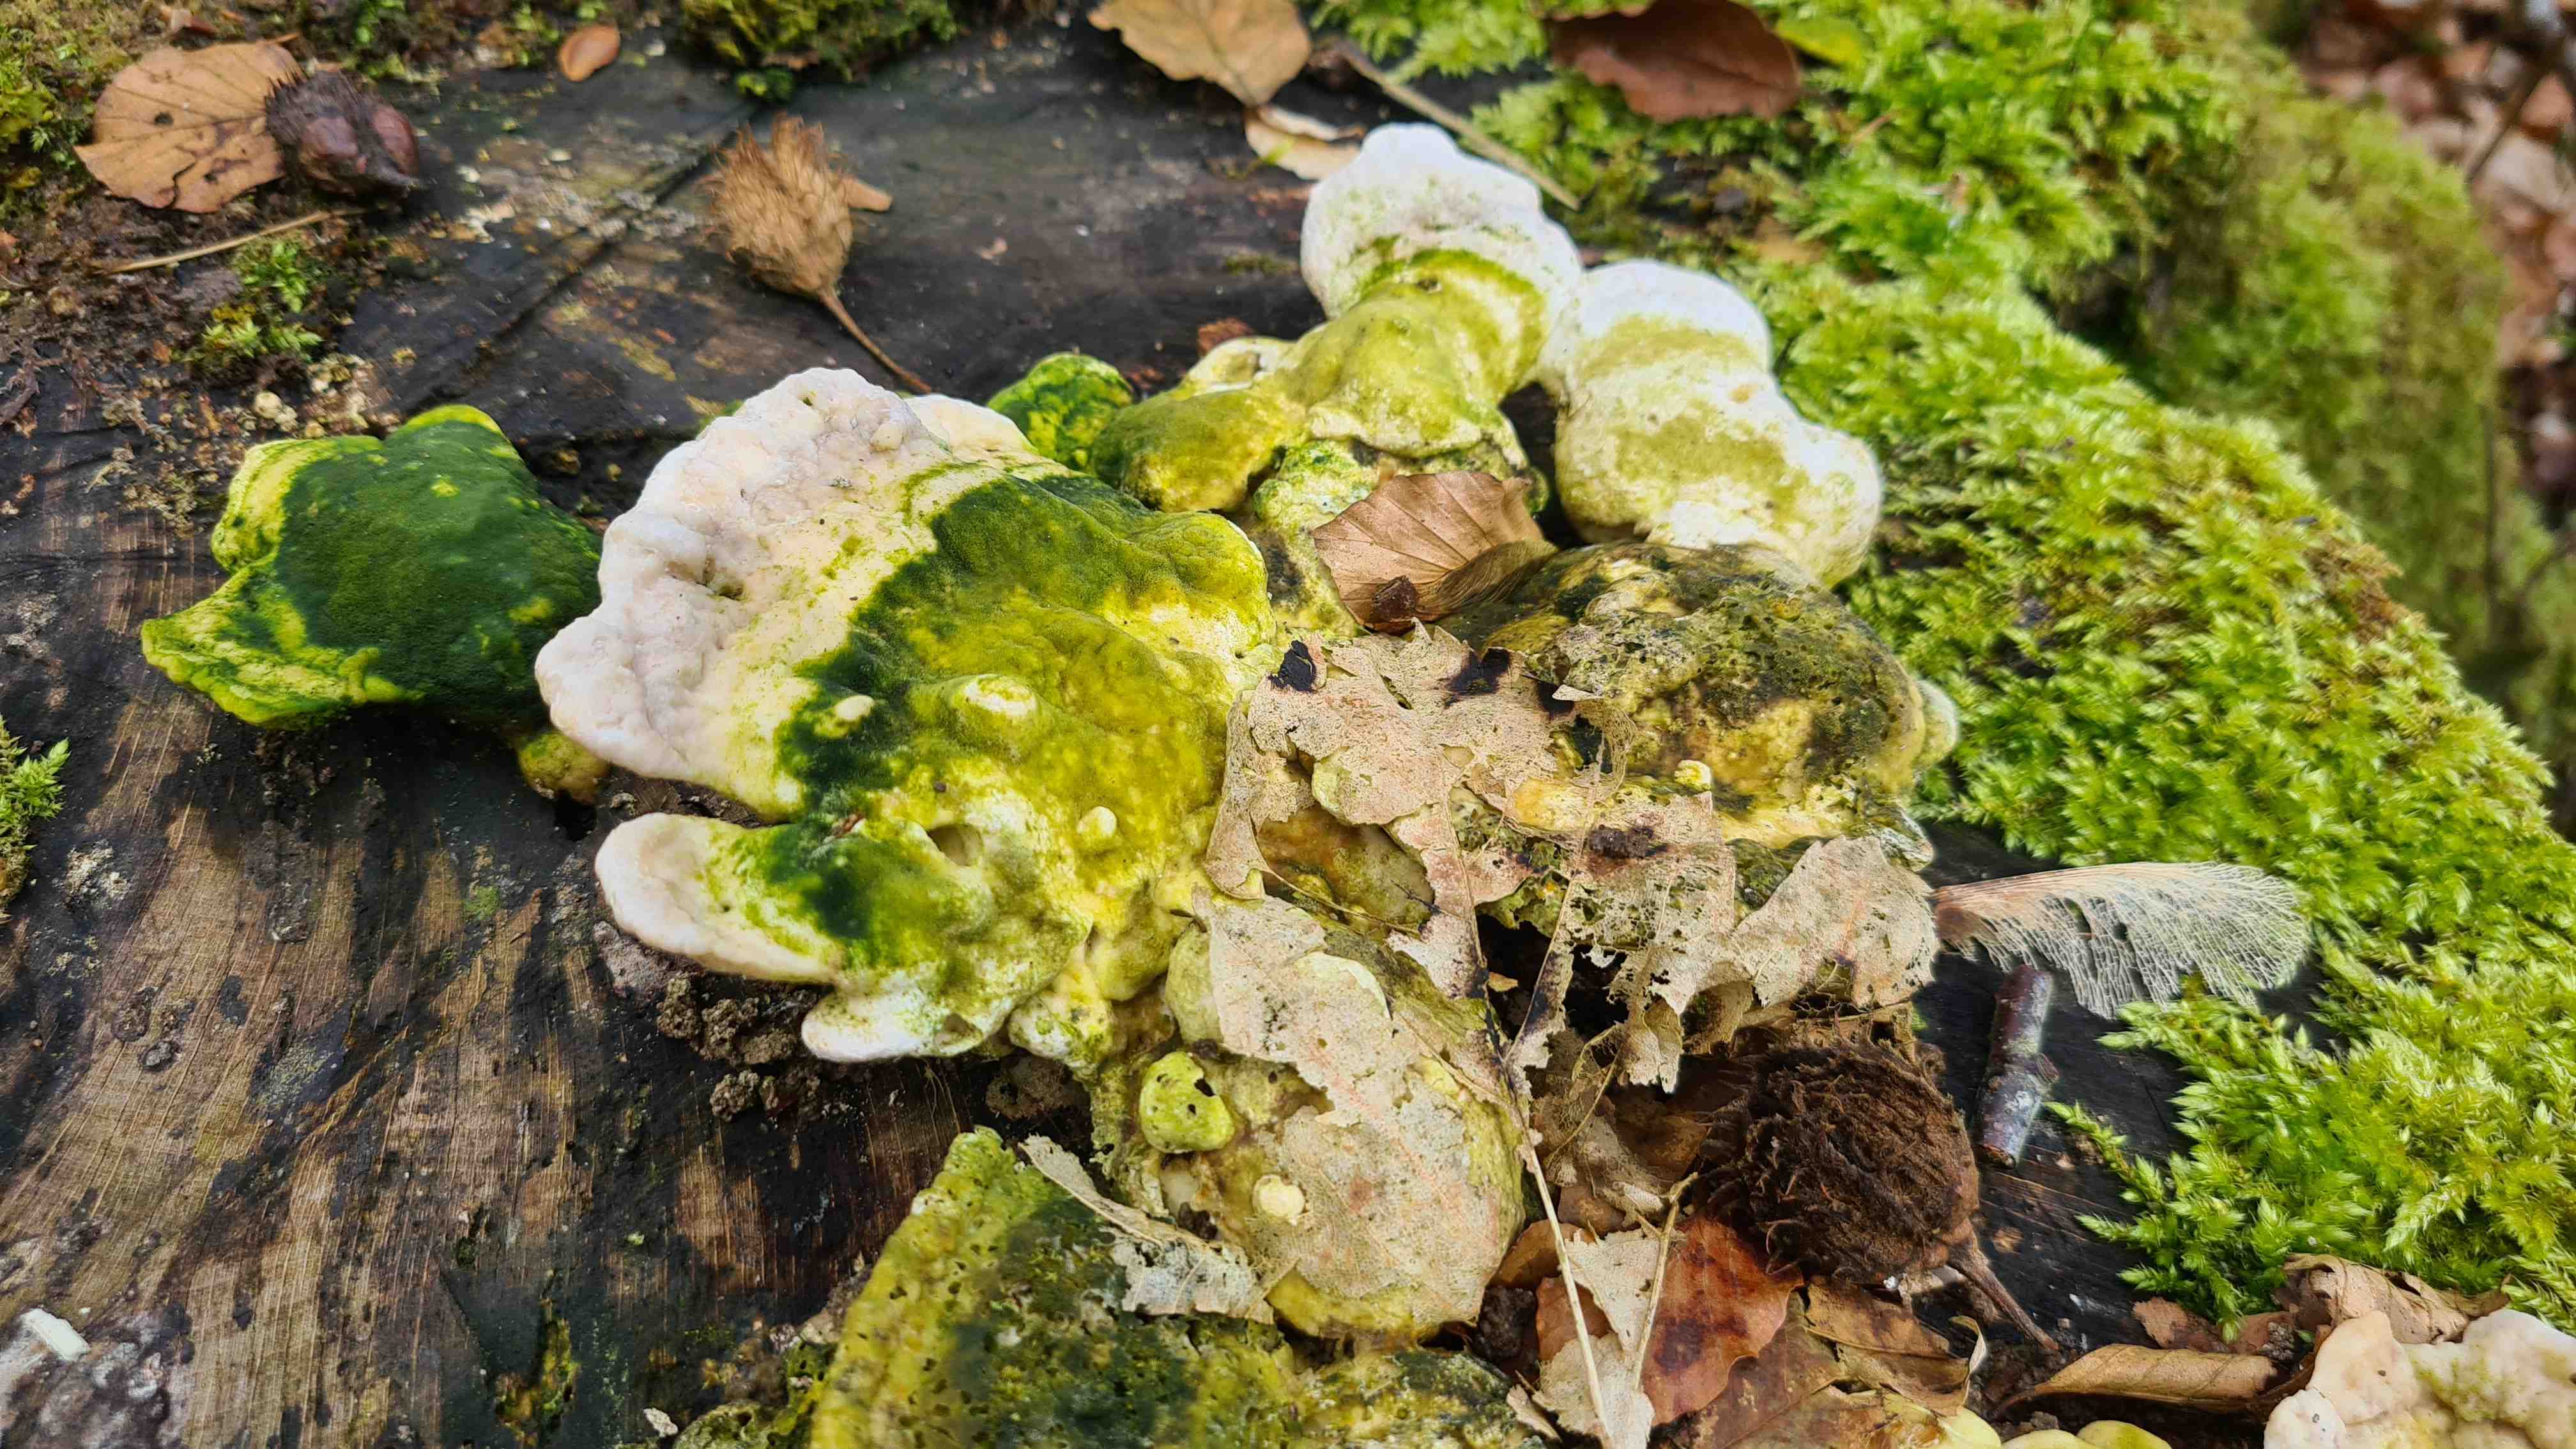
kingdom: Fungi
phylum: Basidiomycota
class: Agaricomycetes
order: Polyporales
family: Polyporaceae
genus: Trametes
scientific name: Trametes gibbosa
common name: puklet læderporesvamp
